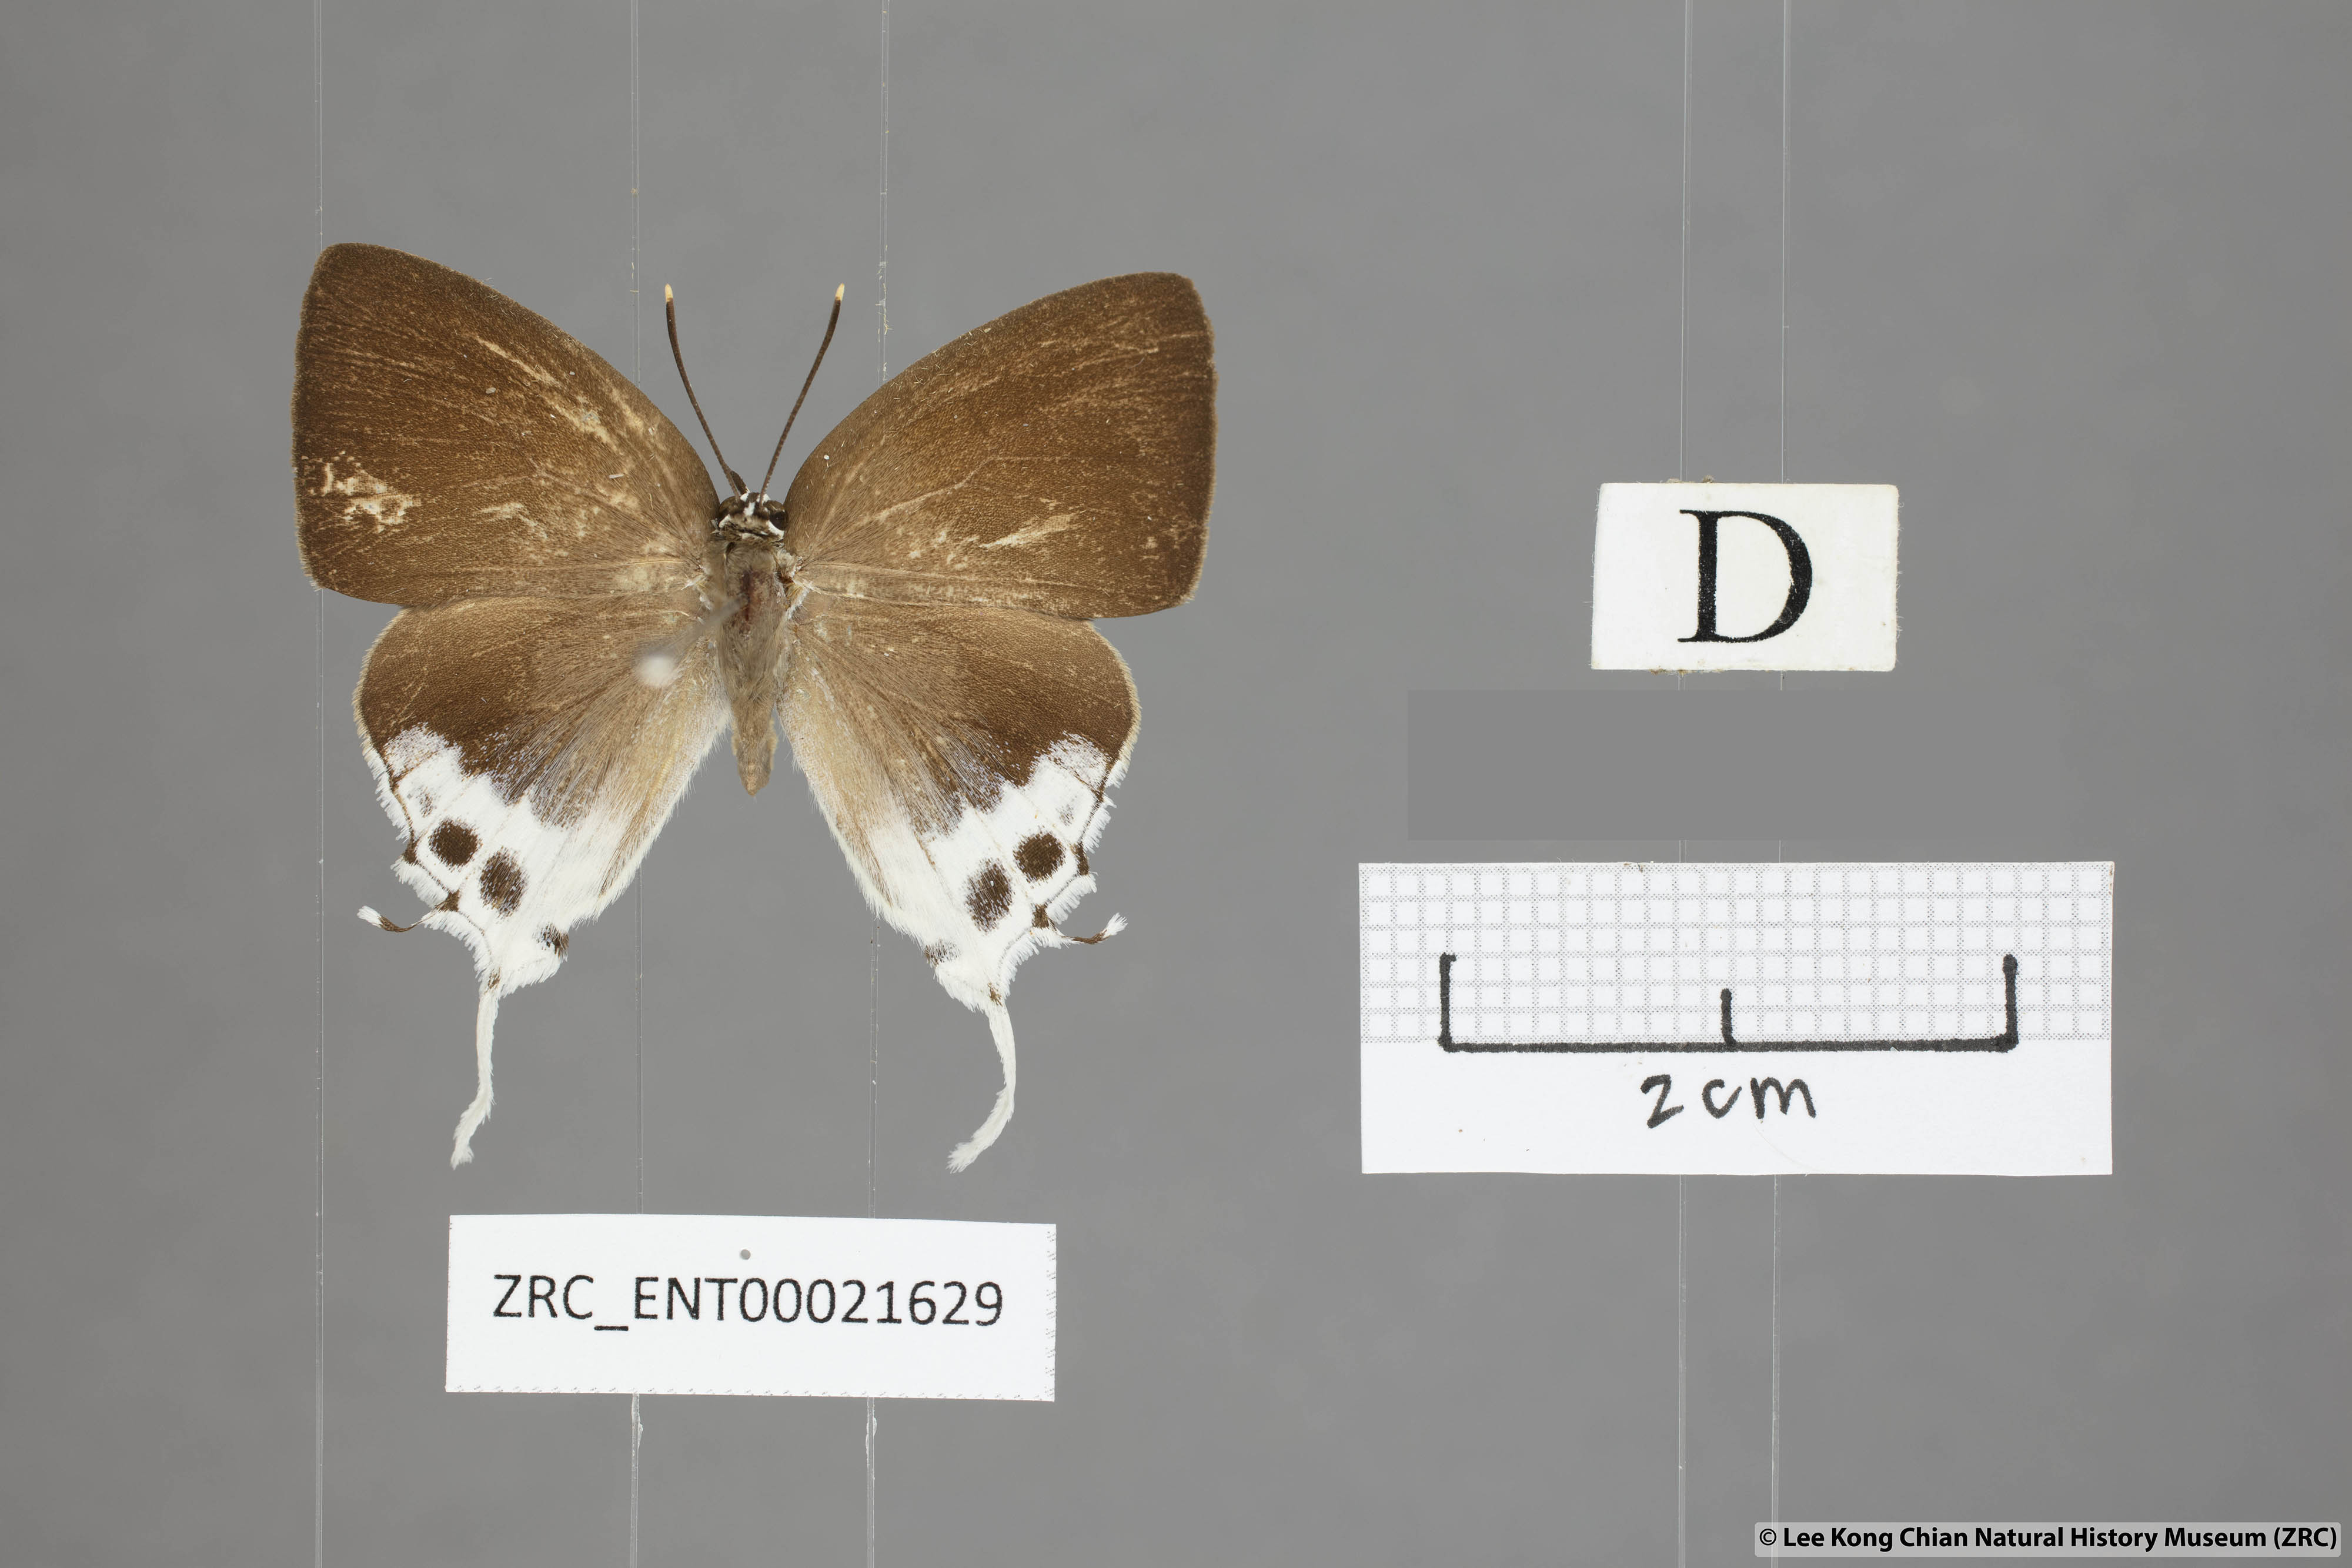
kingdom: Animalia
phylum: Arthropoda
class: Insecta
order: Lepidoptera
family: Lycaenidae
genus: Mantoides
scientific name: Mantoides gama
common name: Distant's imperial
